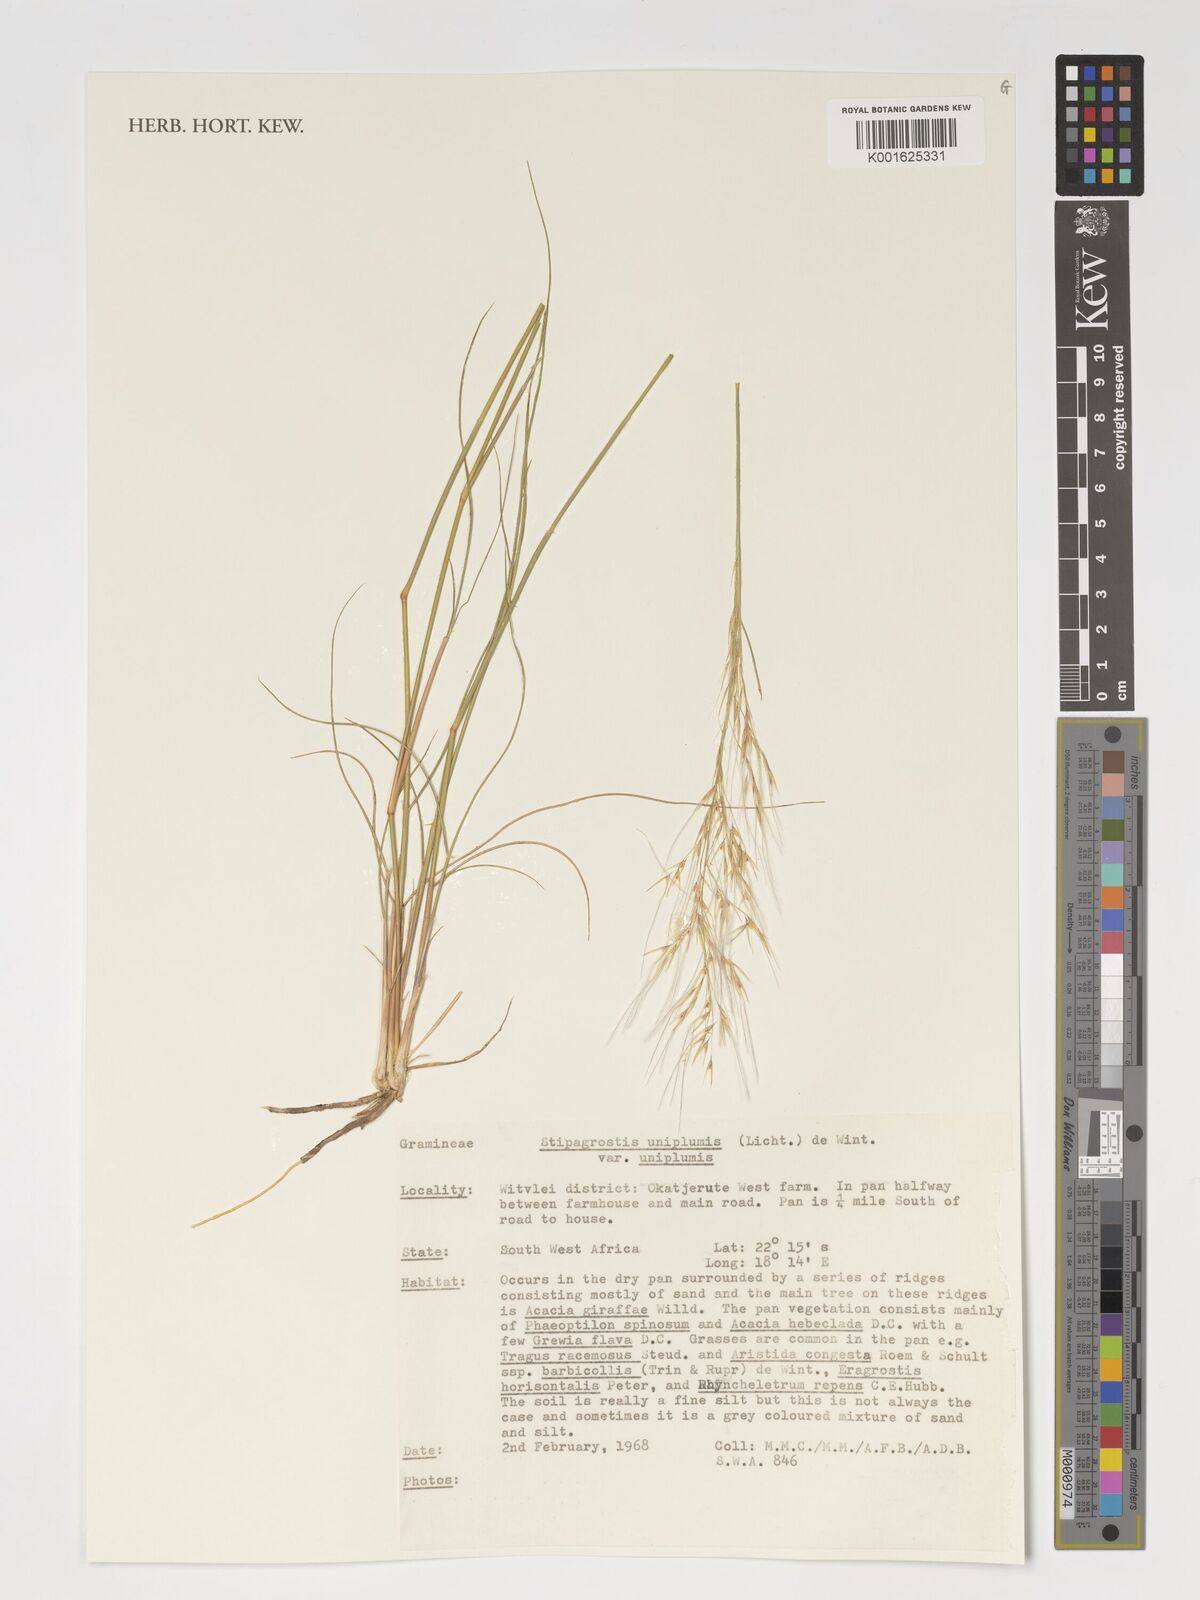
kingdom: Plantae
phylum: Tracheophyta
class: Liliopsida
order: Poales
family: Poaceae
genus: Stipagrostis
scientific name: Stipagrostis uniplumis
